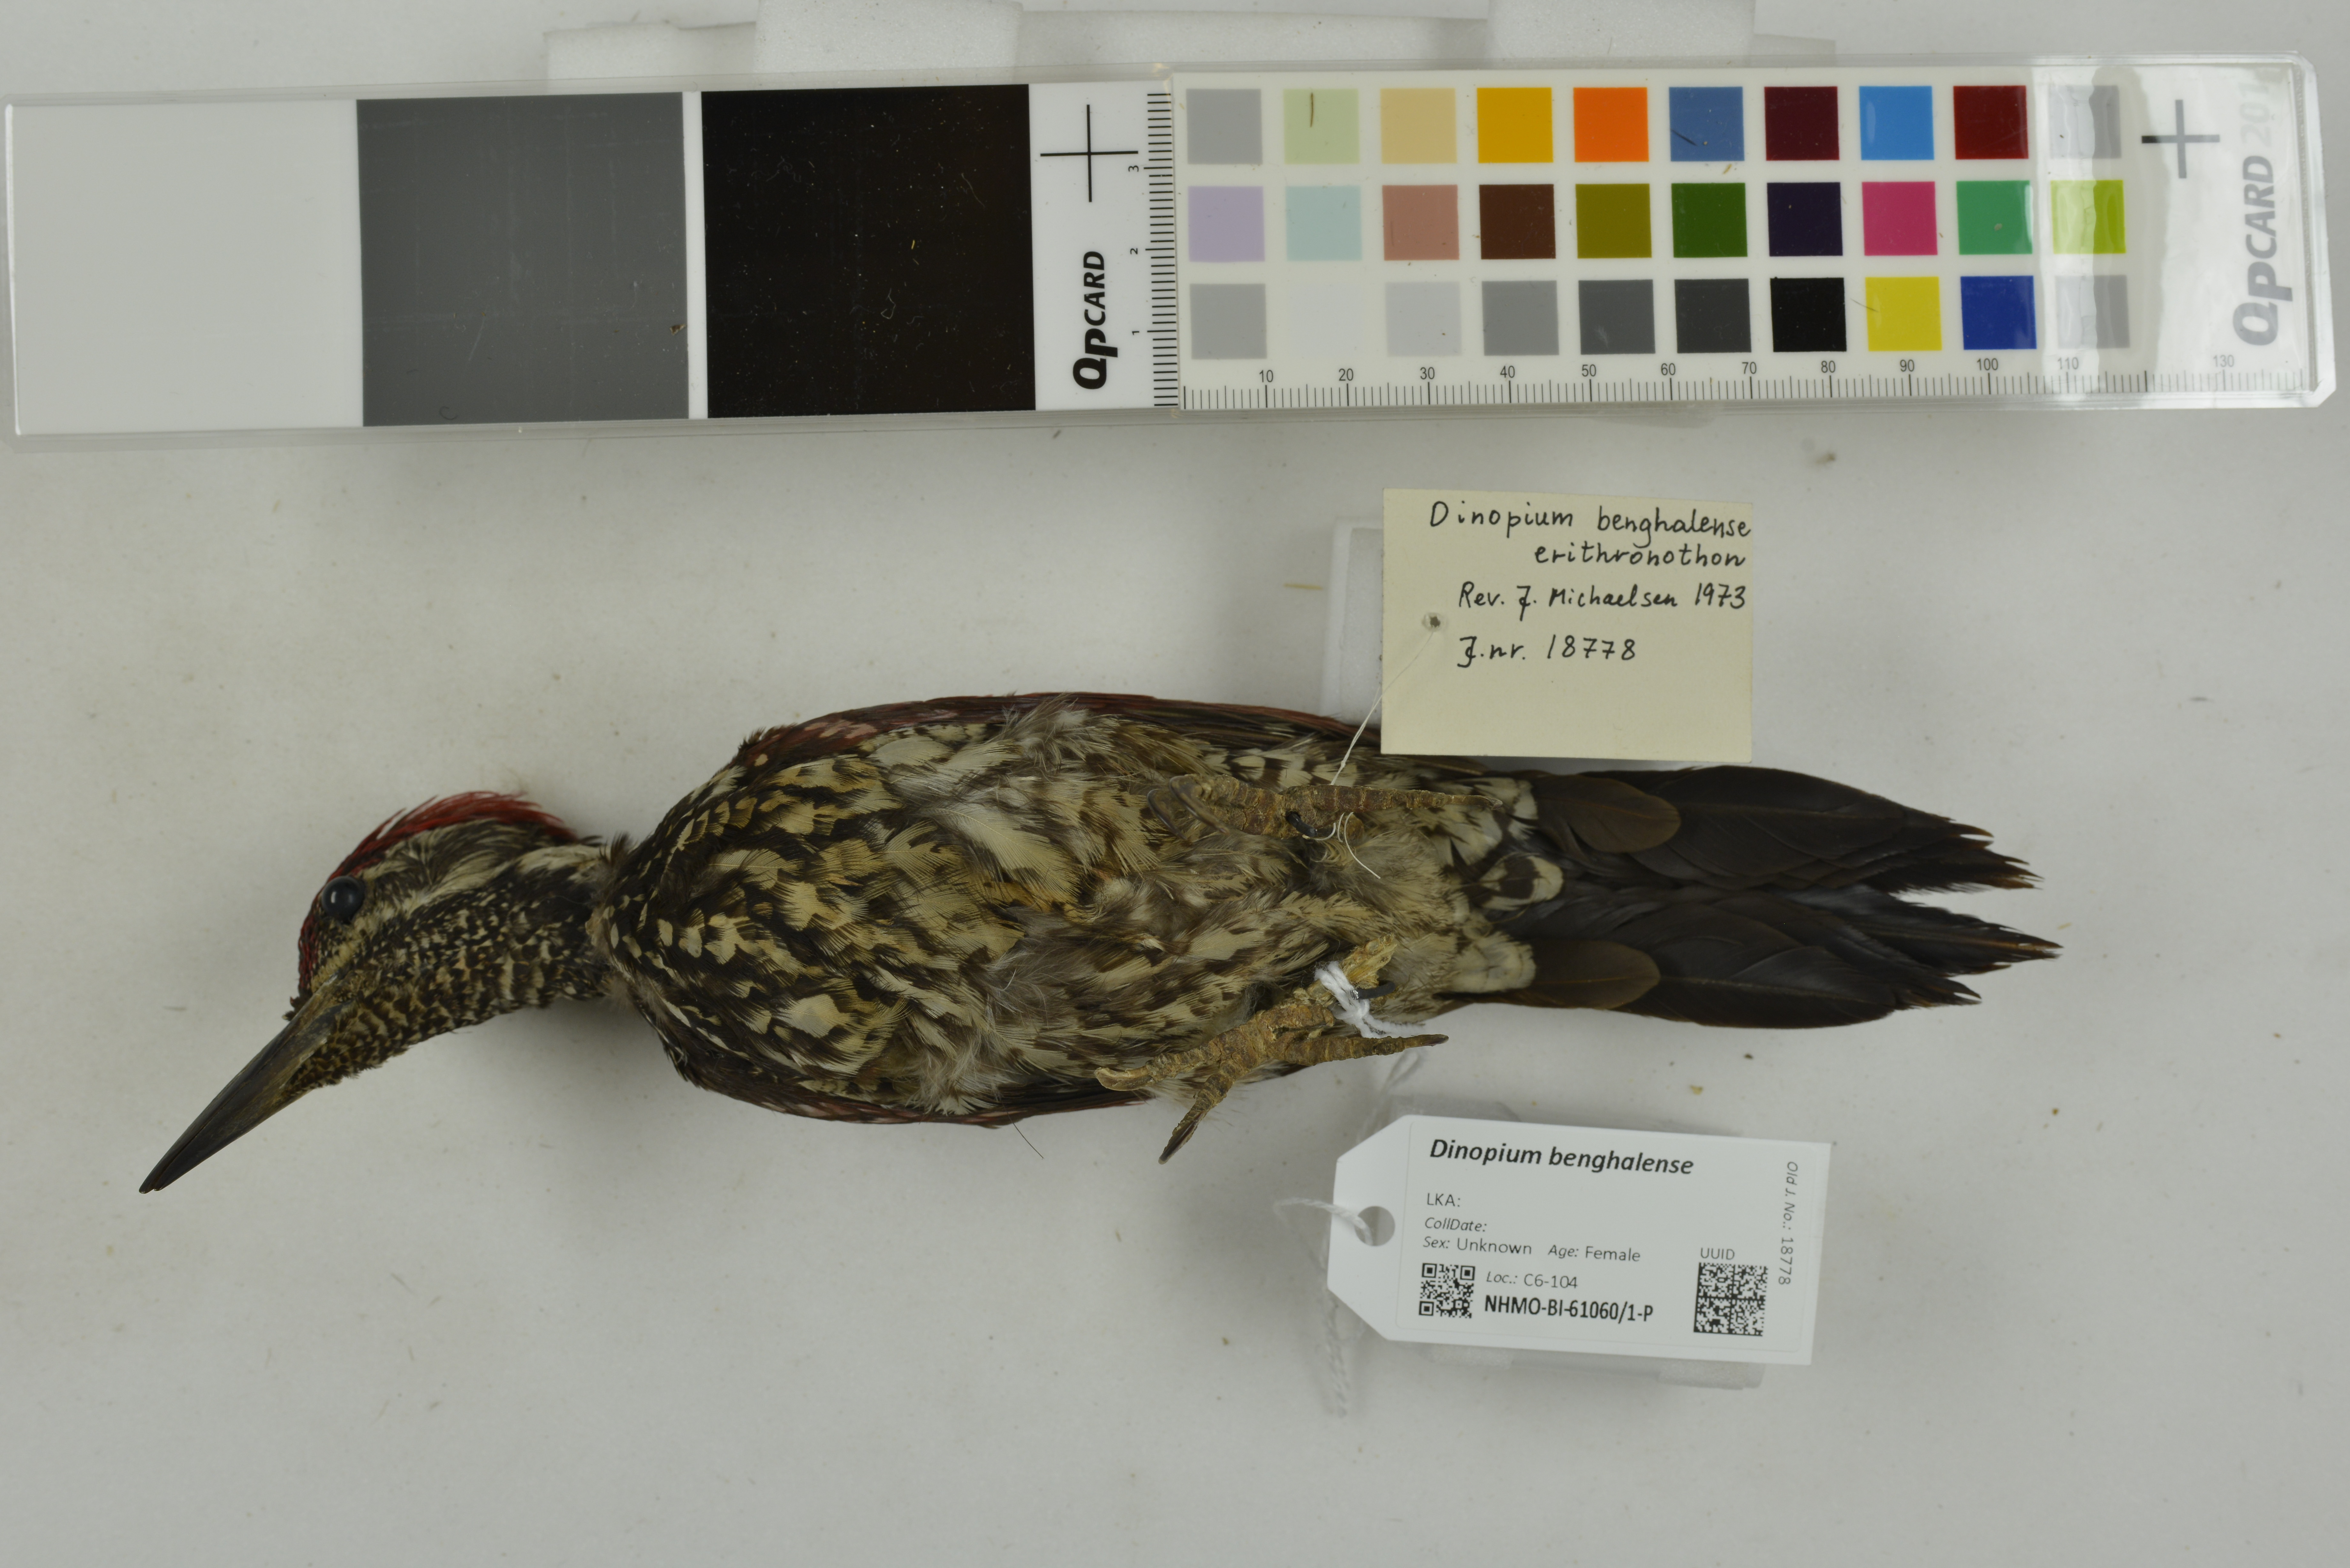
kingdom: Animalia
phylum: Chordata
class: Aves
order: Piciformes
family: Picidae
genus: Dinopium
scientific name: Dinopium benghalense
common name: Black-rumped flameback
